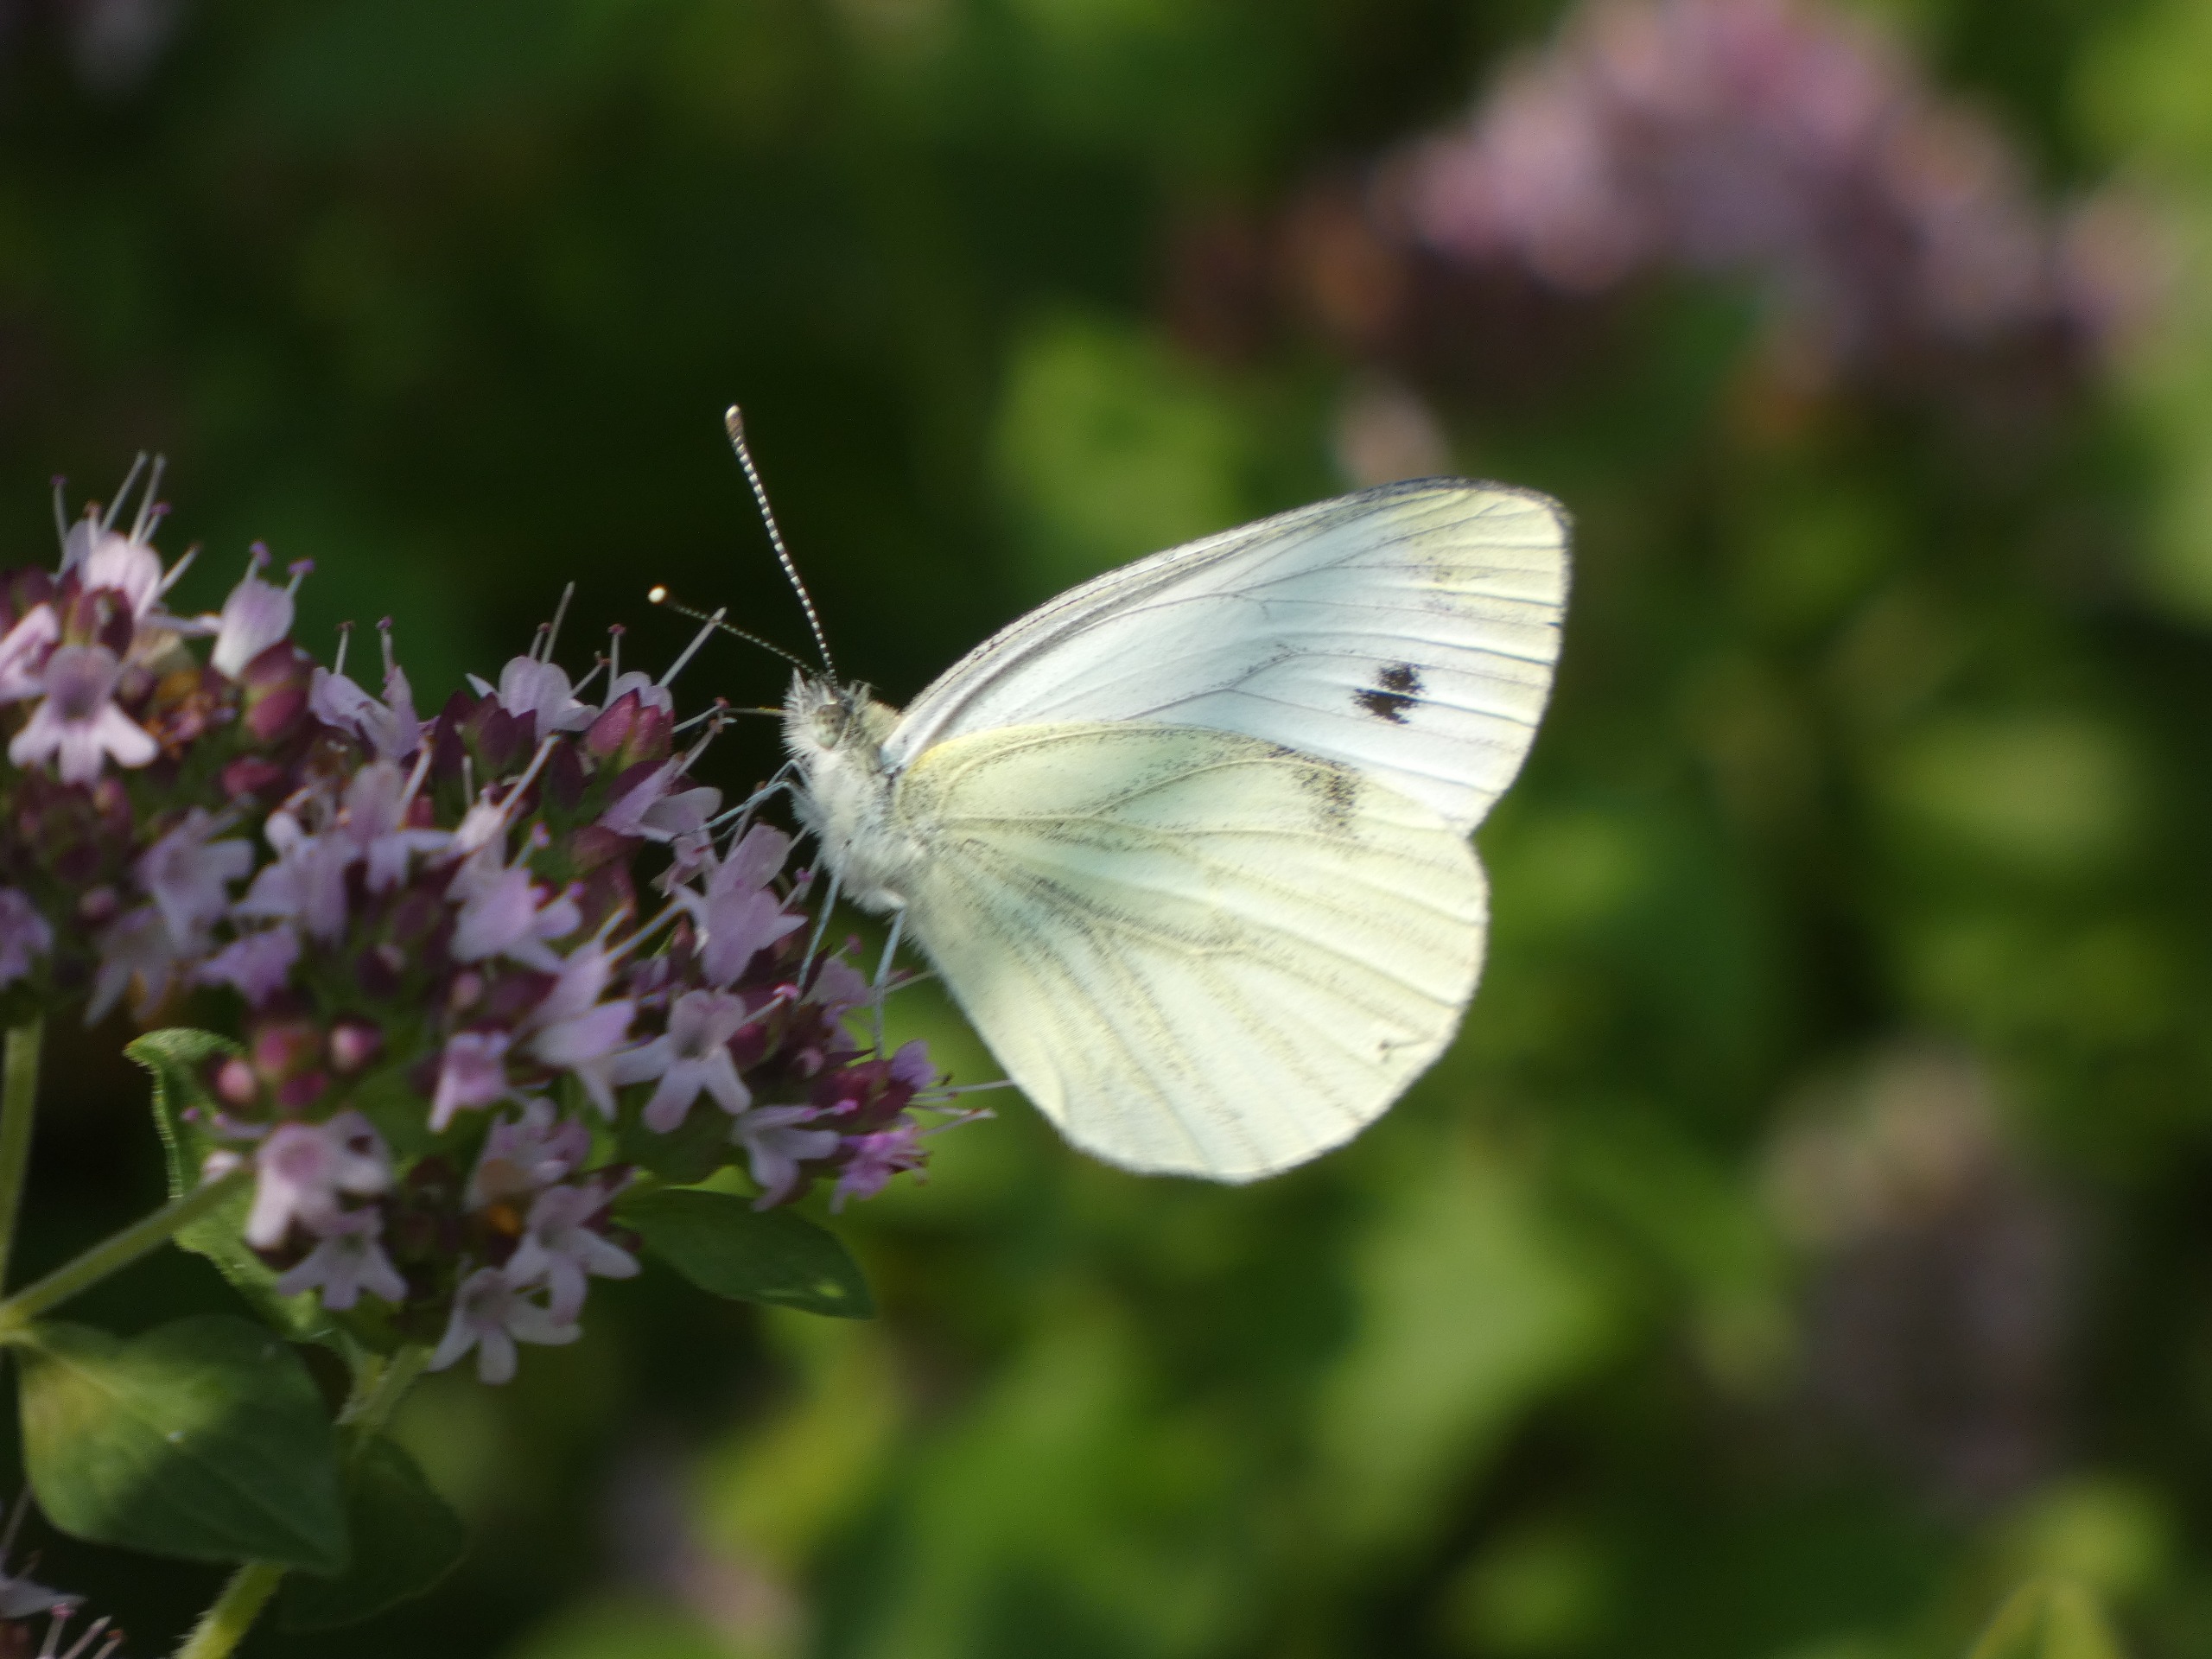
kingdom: Animalia
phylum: Arthropoda
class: Insecta
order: Lepidoptera
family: Pieridae
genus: Pieris
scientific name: Pieris napi
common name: Grønåret kålsommerfugl
